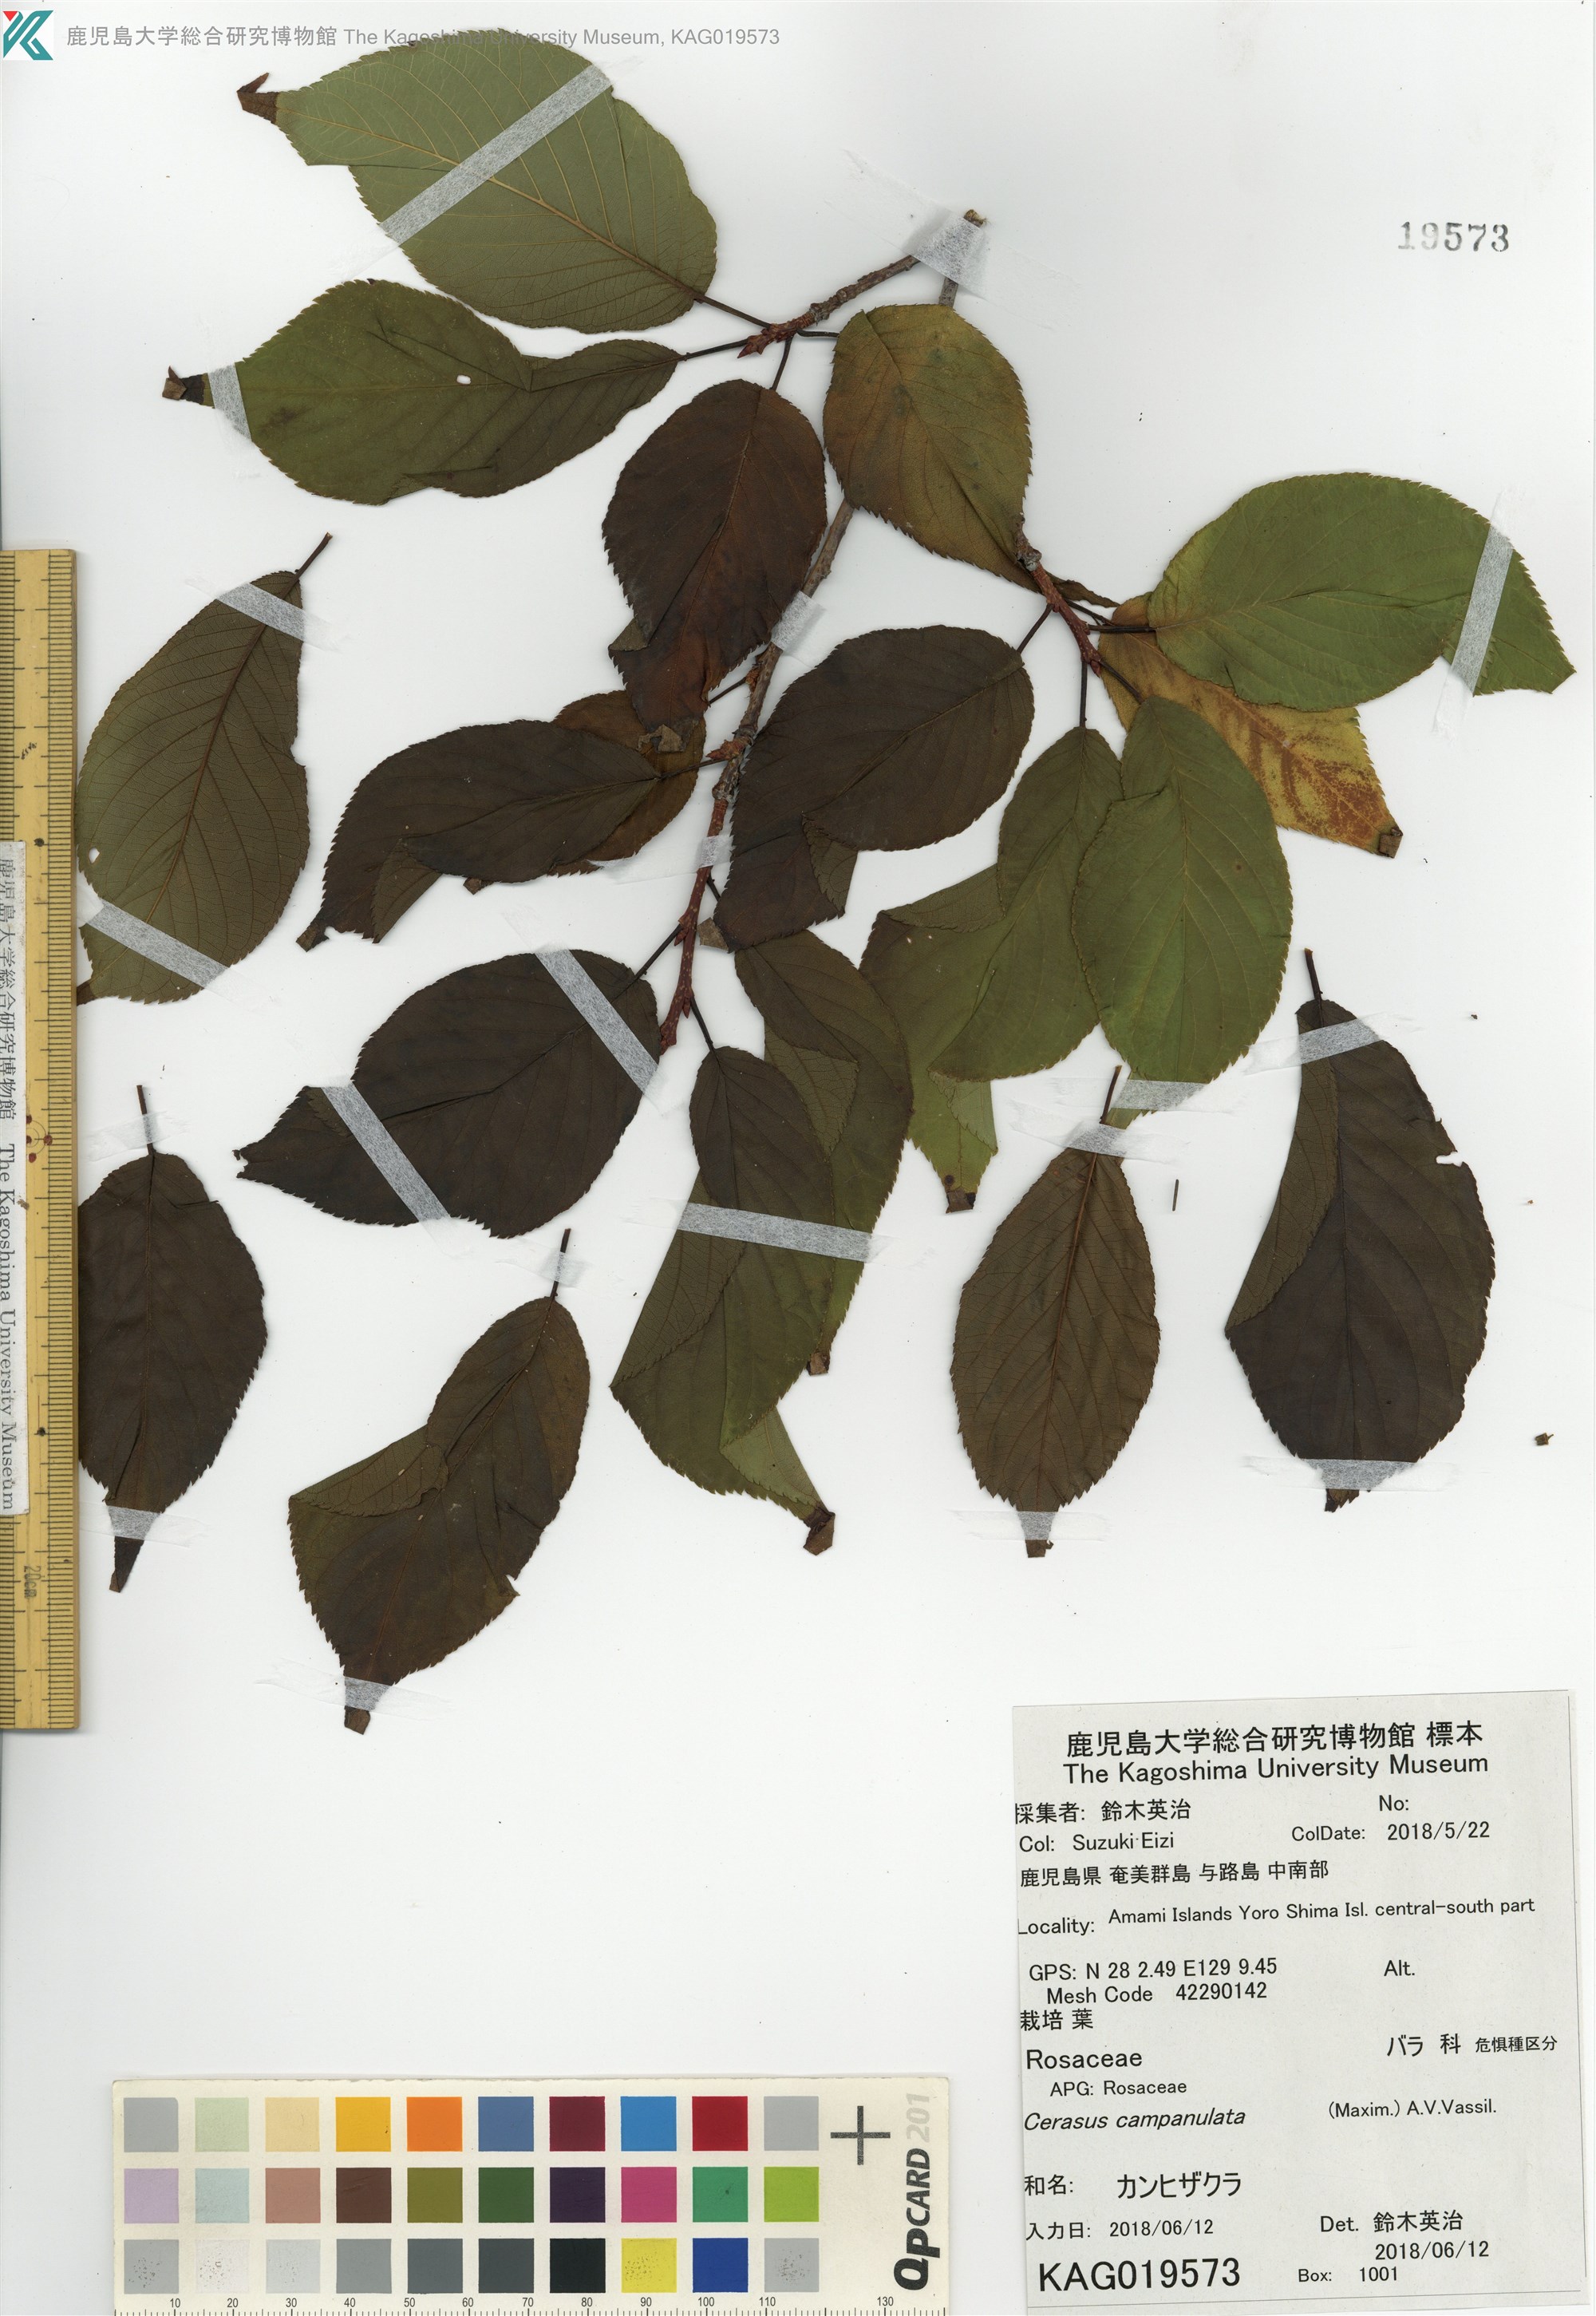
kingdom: Plantae
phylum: Tracheophyta
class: Magnoliopsida
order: Rosales
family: Rosaceae
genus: Prunus
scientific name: Prunus campanulata
